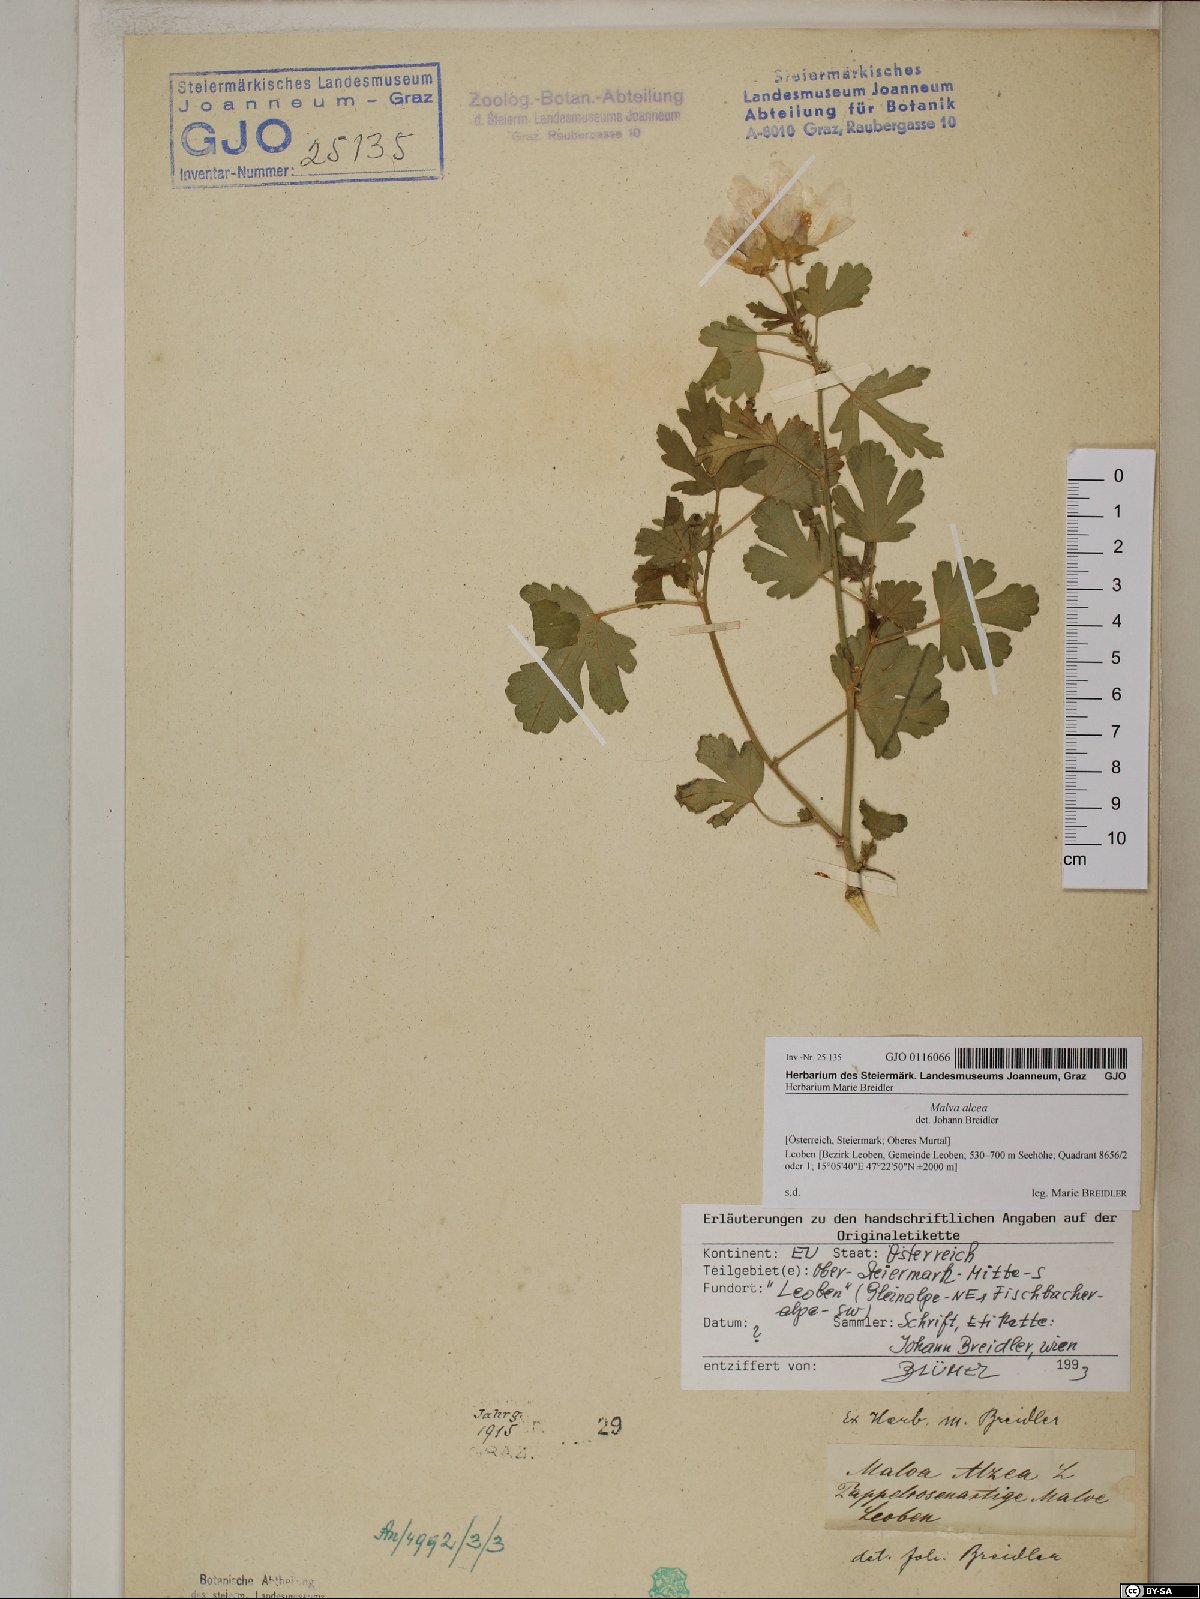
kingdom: Plantae
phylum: Tracheophyta
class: Magnoliopsida
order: Malvales
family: Malvaceae
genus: Malva
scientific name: Malva alcea
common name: Greater musk-mallow
